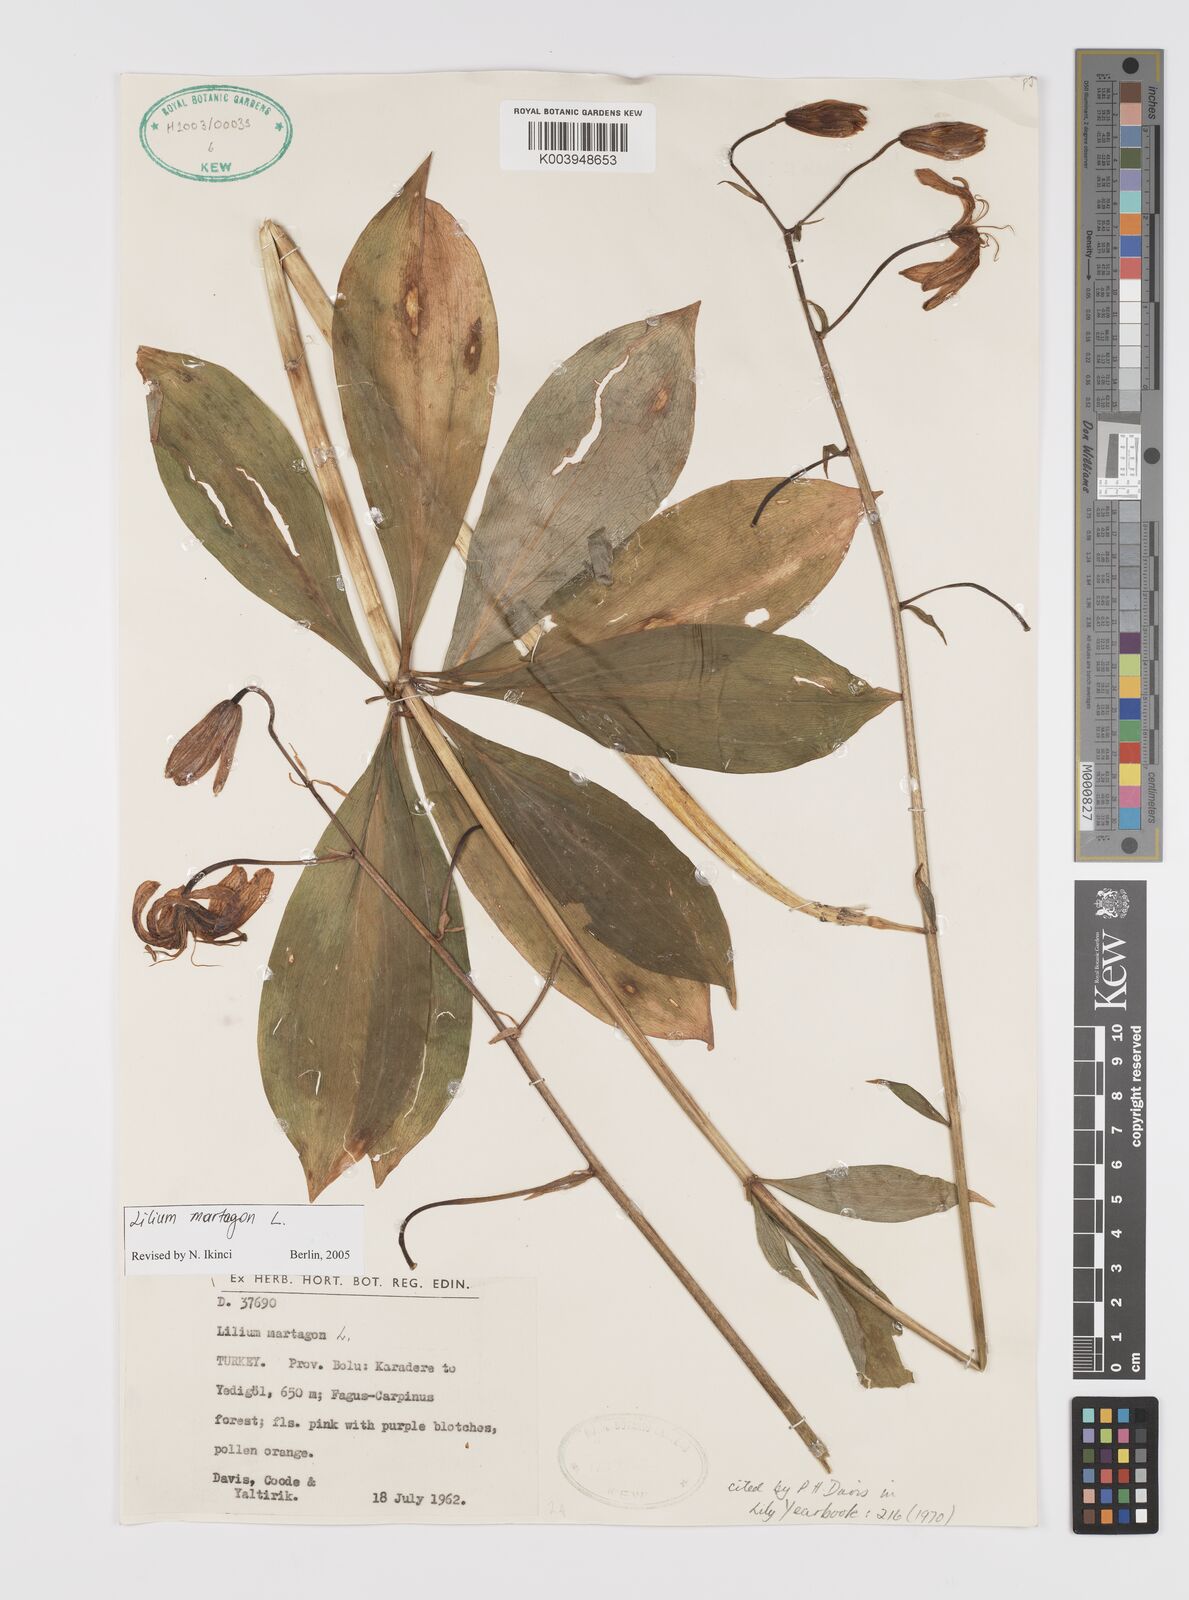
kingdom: Plantae
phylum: Tracheophyta
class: Liliopsida
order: Liliales
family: Liliaceae
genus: Lilium
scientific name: Lilium martagon
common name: Martagon lily
